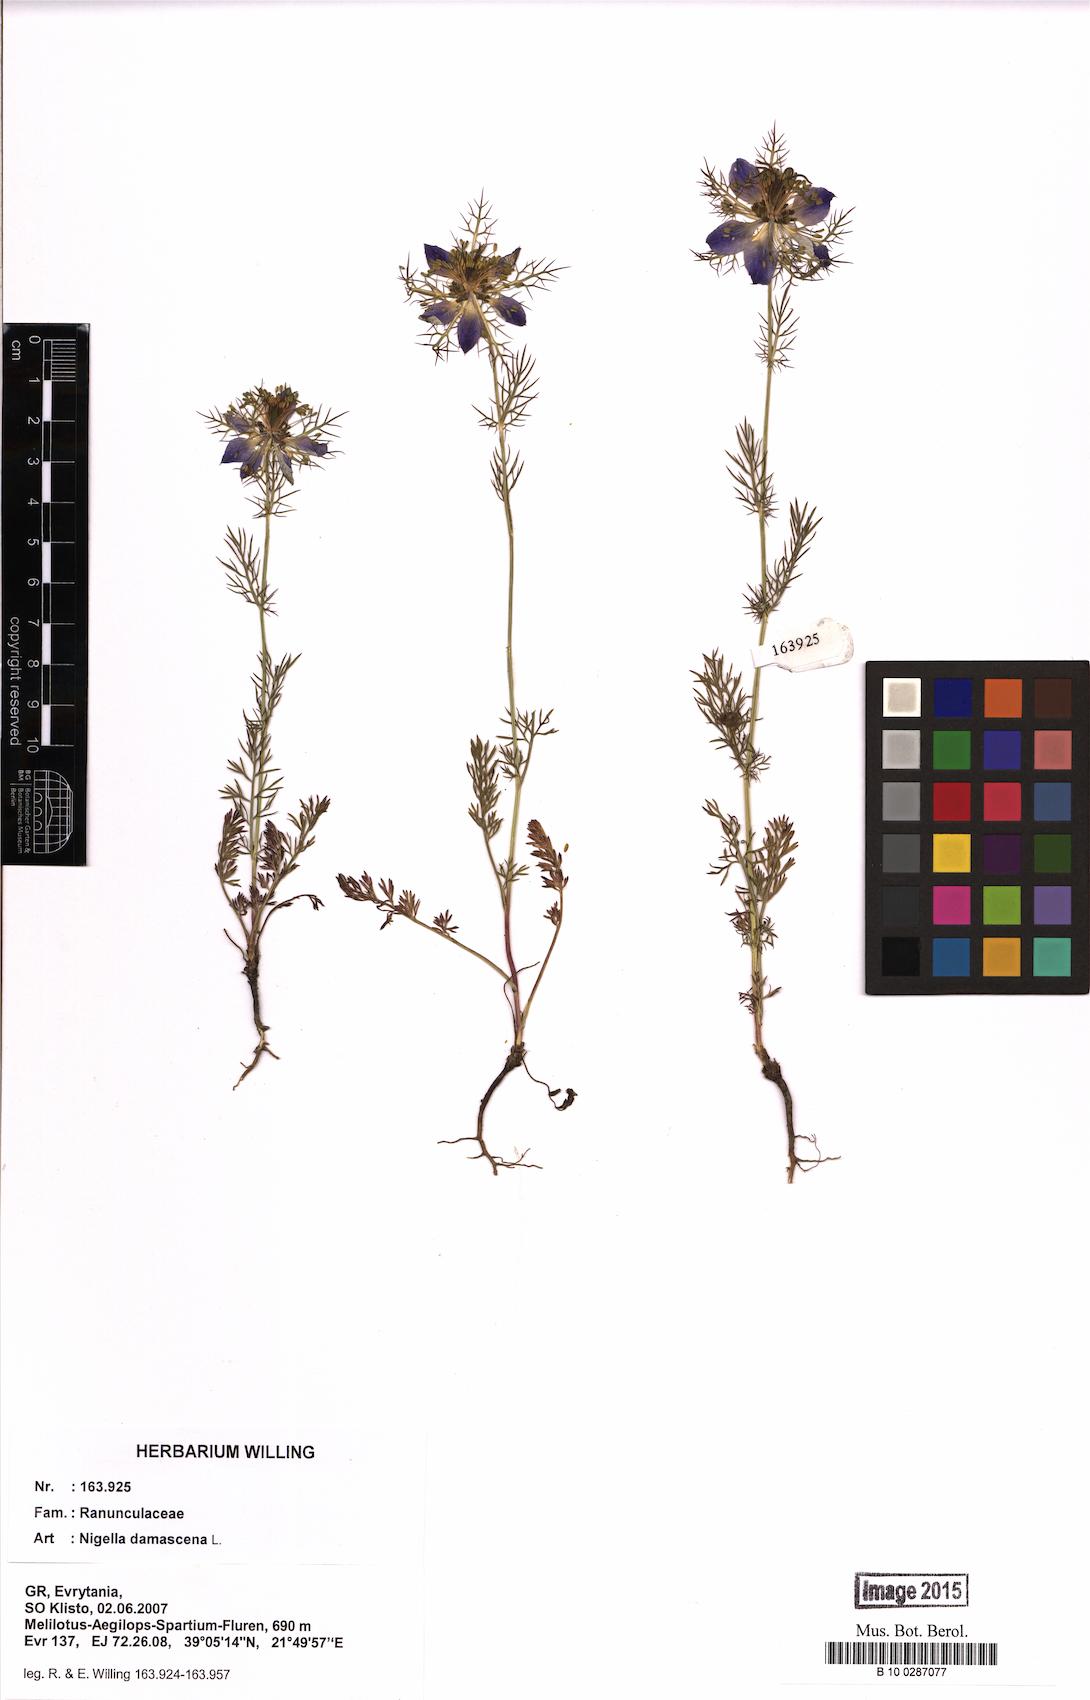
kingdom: Plantae
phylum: Tracheophyta
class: Magnoliopsida
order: Ranunculales
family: Ranunculaceae
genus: Nigella
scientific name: Nigella damascena
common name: Love-in-a-mist
